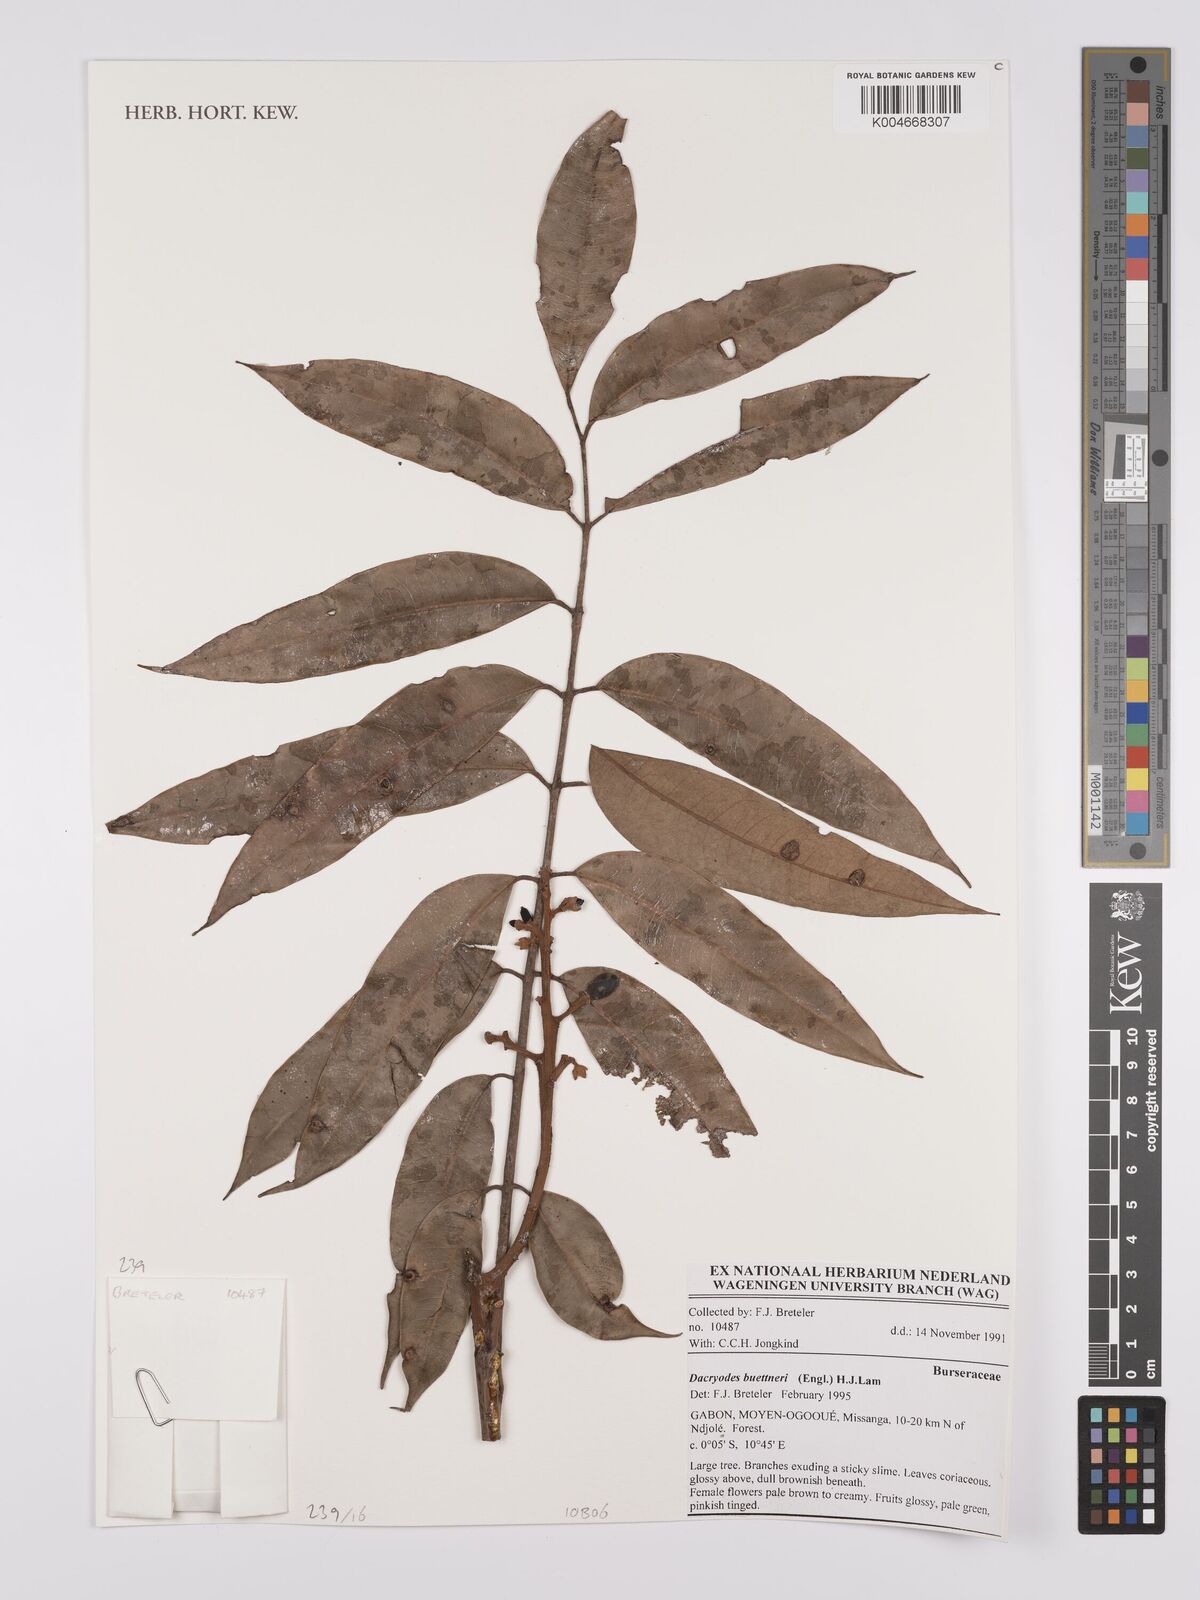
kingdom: Plantae
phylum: Tracheophyta
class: Magnoliopsida
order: Sapindales
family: Burseraceae
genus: Pachylobus
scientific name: Pachylobus buettneri
